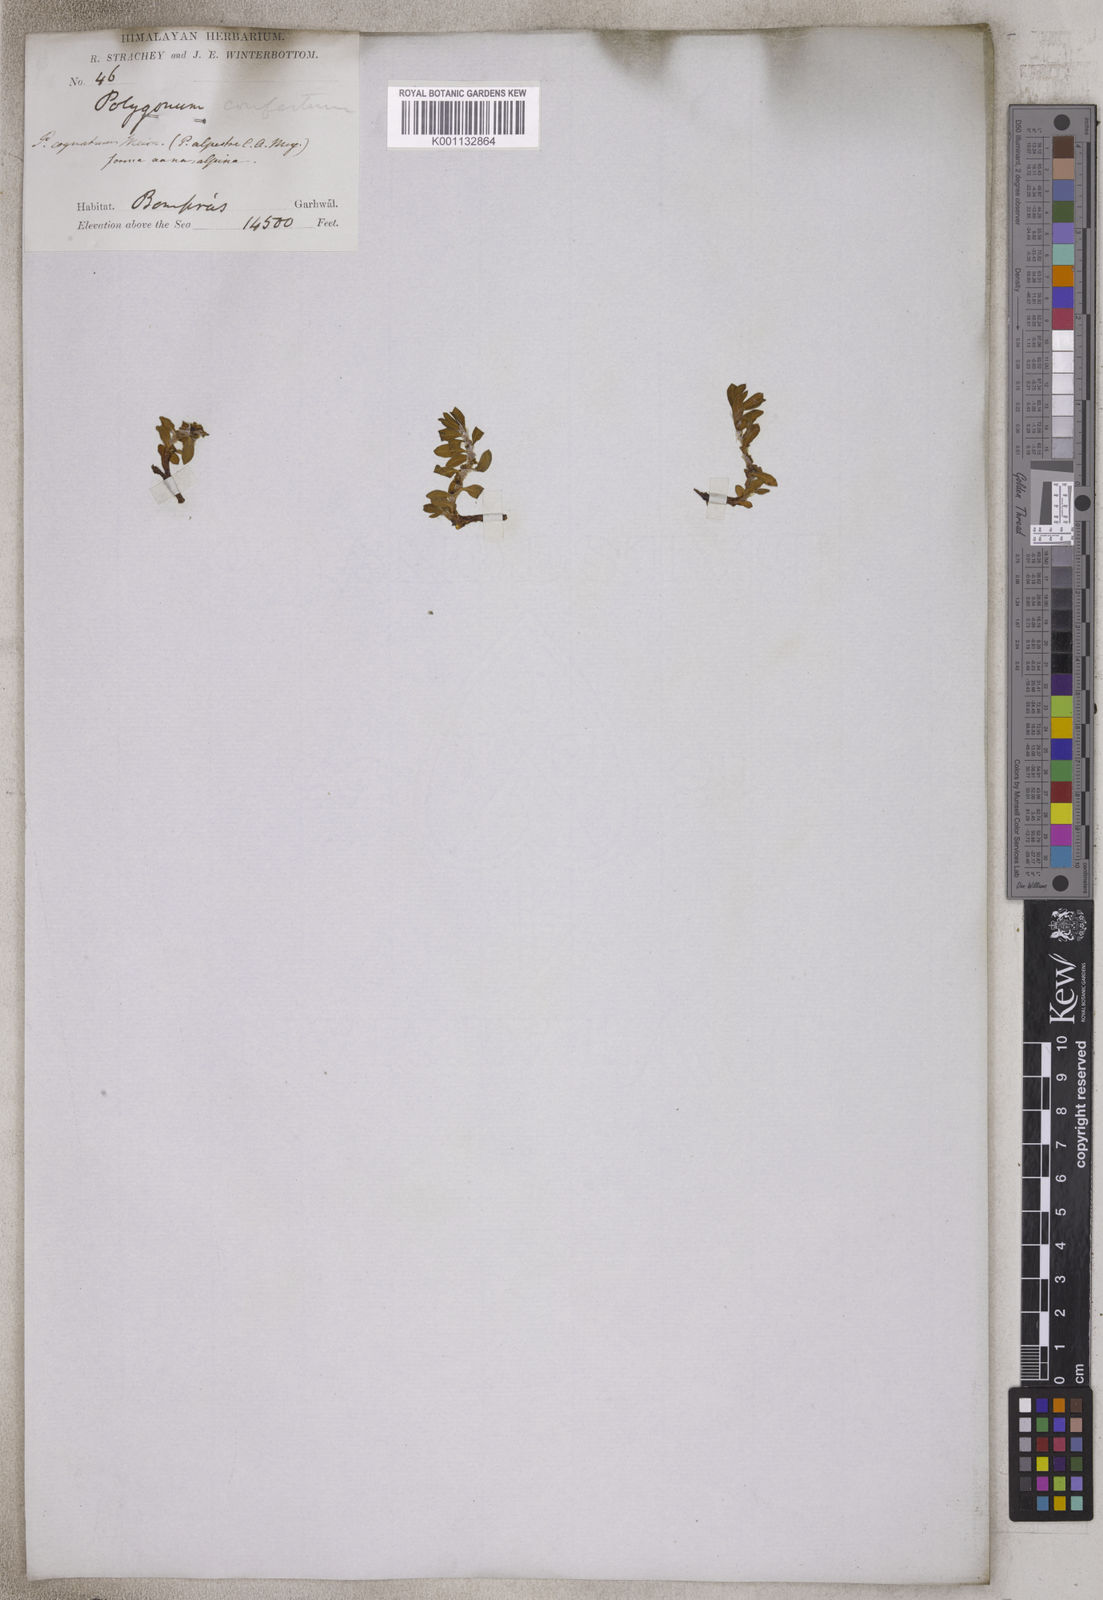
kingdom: Plantae
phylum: Tracheophyta
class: Magnoliopsida
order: Caryophyllales
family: Polygonaceae
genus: Polygonum
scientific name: Polygonum cognatum
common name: Indian knotgrass
